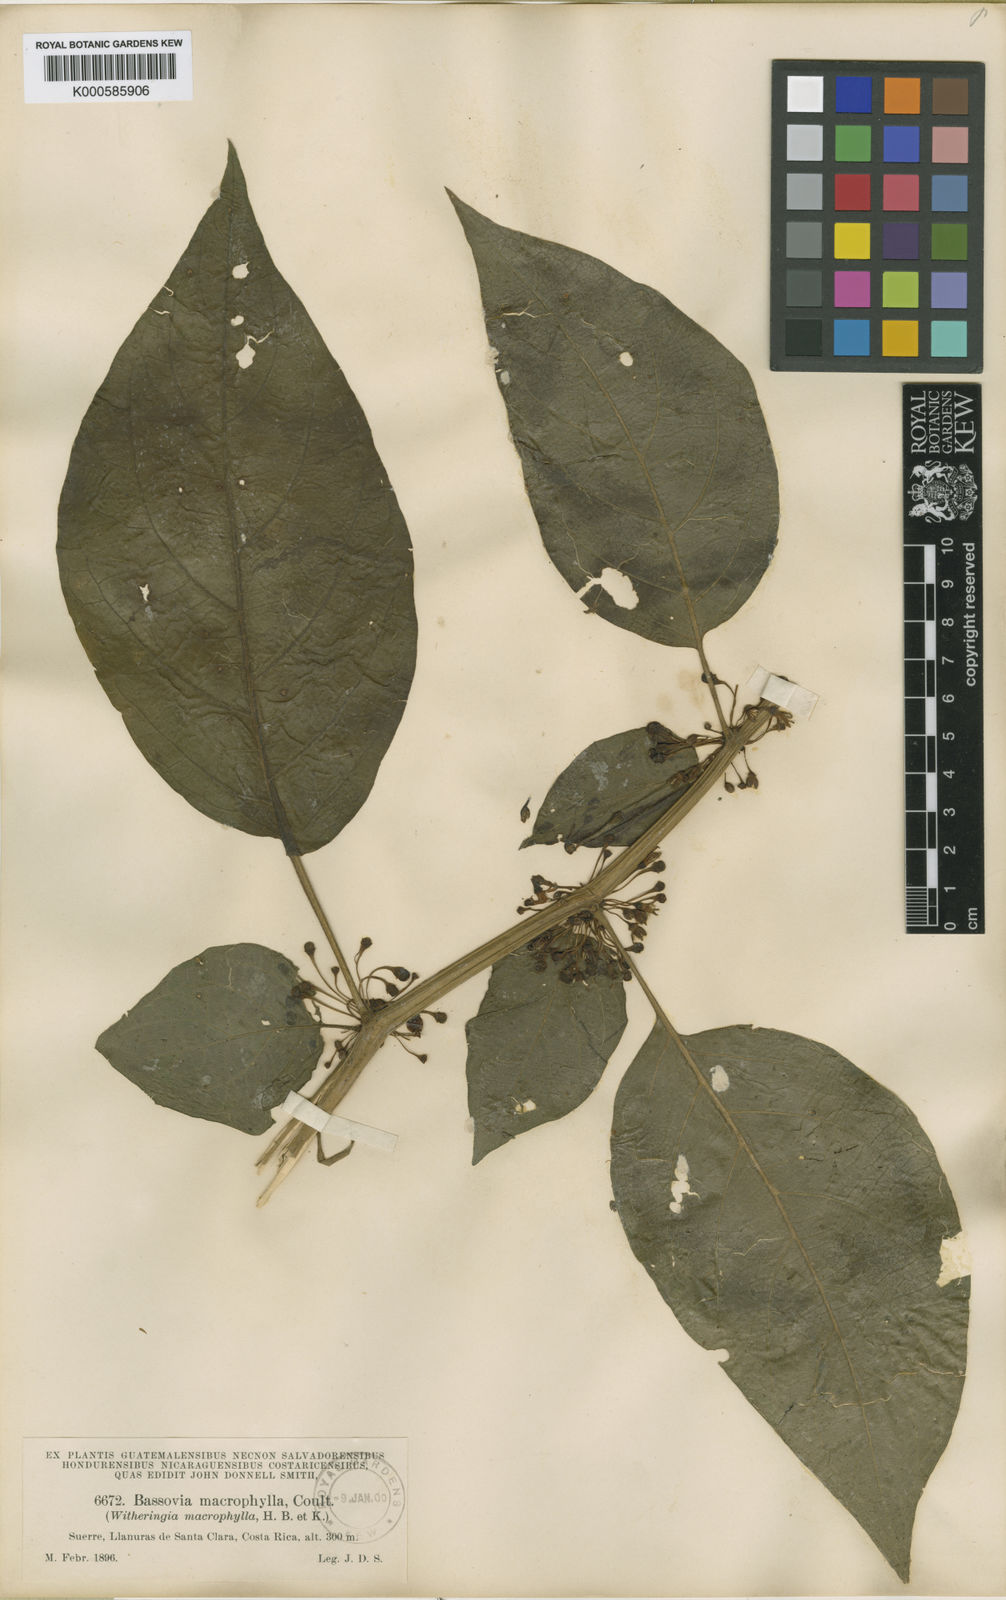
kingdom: Plantae
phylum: Tracheophyta
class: Magnoliopsida
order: Solanales
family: Solanaceae
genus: Witheringia
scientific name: Witheringia
